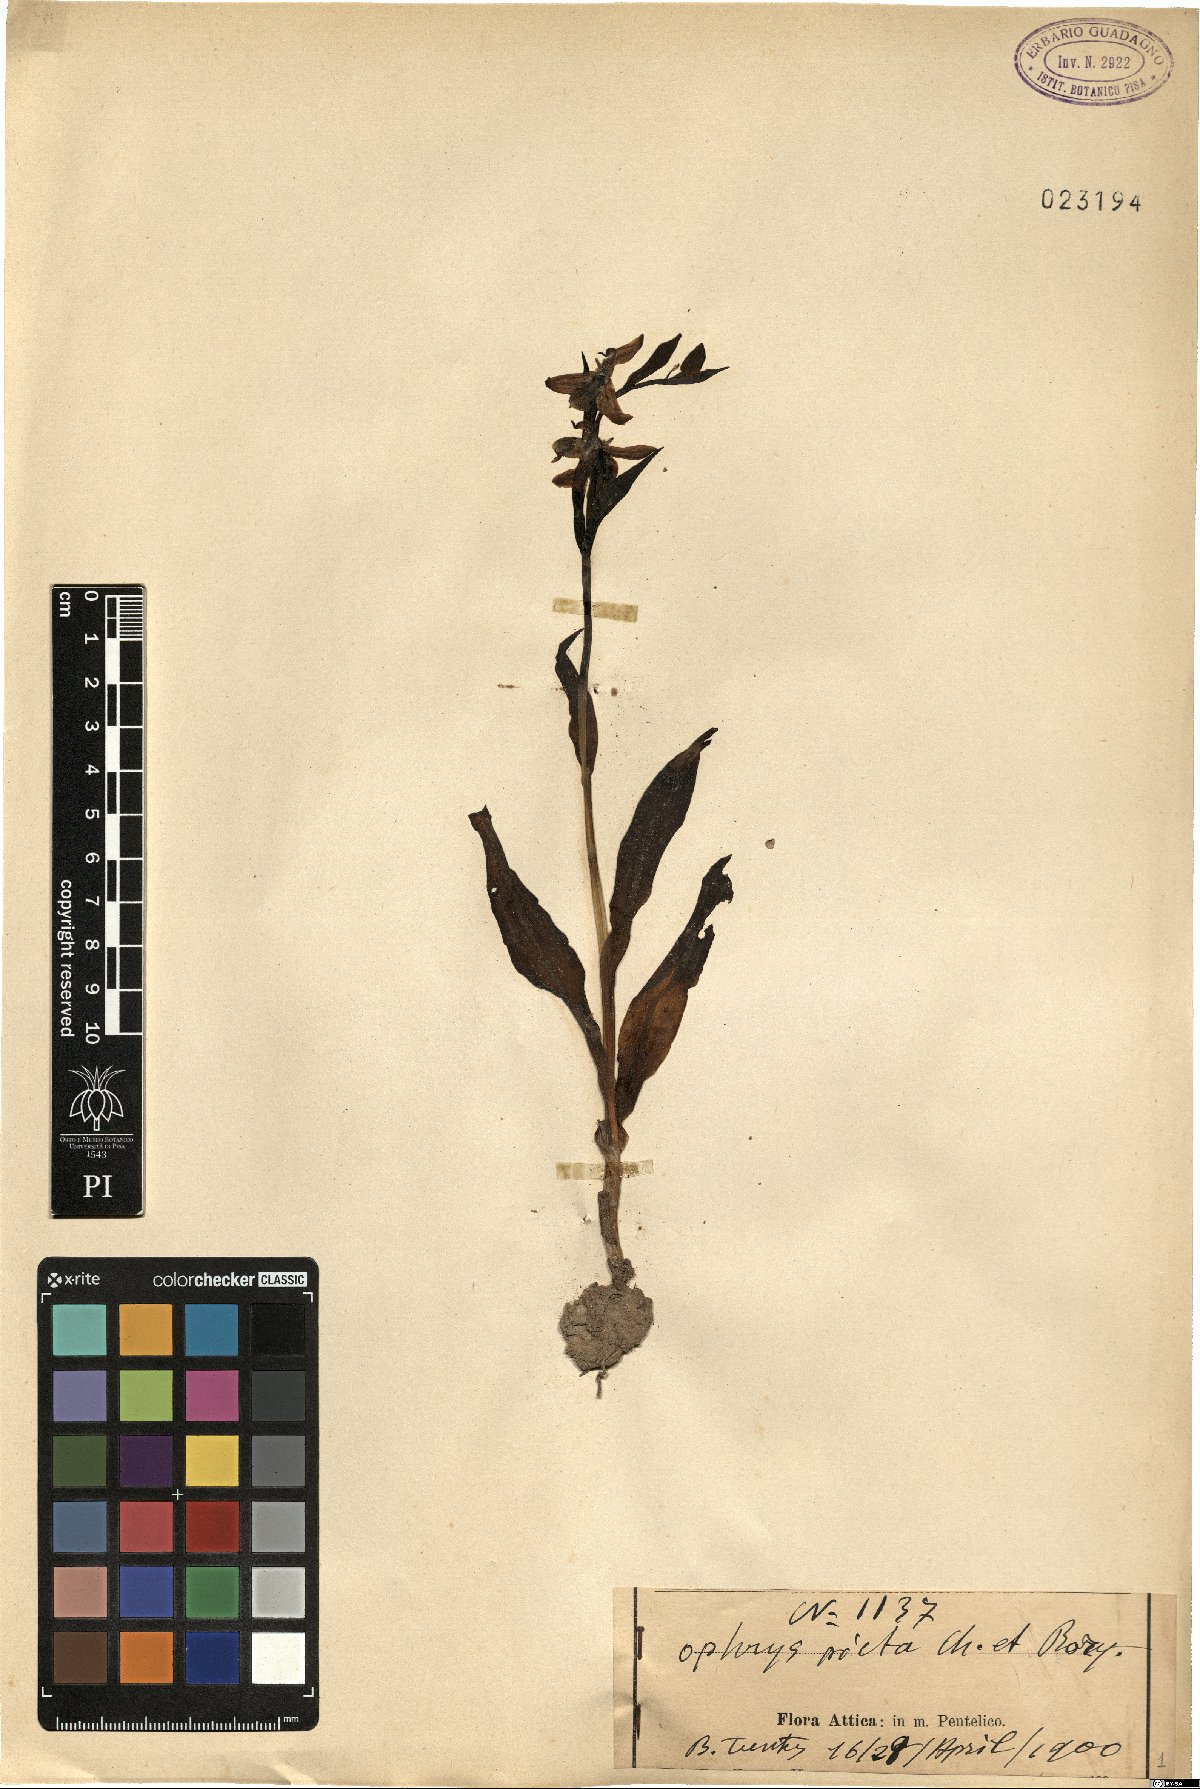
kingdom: Plantae
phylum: Tracheophyta
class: Liliopsida
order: Asparagales
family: Orchidaceae
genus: Ophrys
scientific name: Ophrys scolopax
